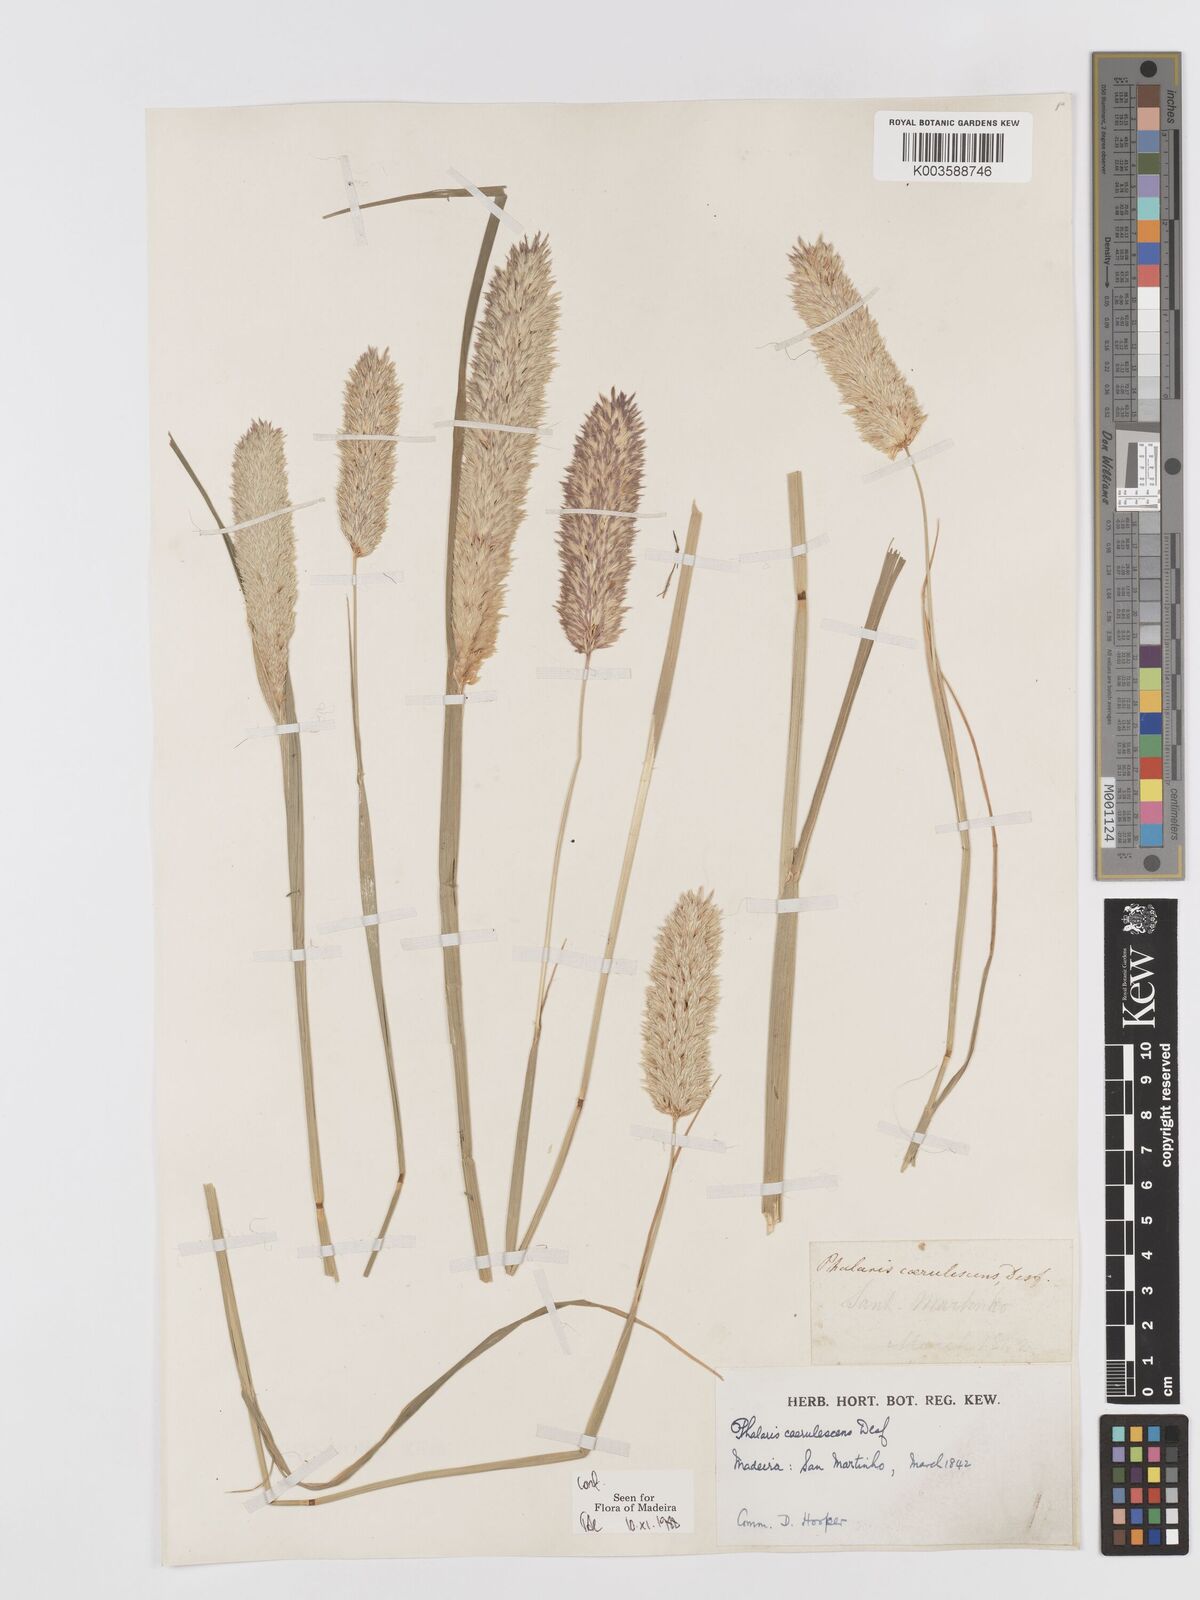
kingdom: Plantae
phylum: Tracheophyta
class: Liliopsida
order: Poales
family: Poaceae
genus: Phalaris
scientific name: Phalaris coerulescens
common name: Sunolgrass
